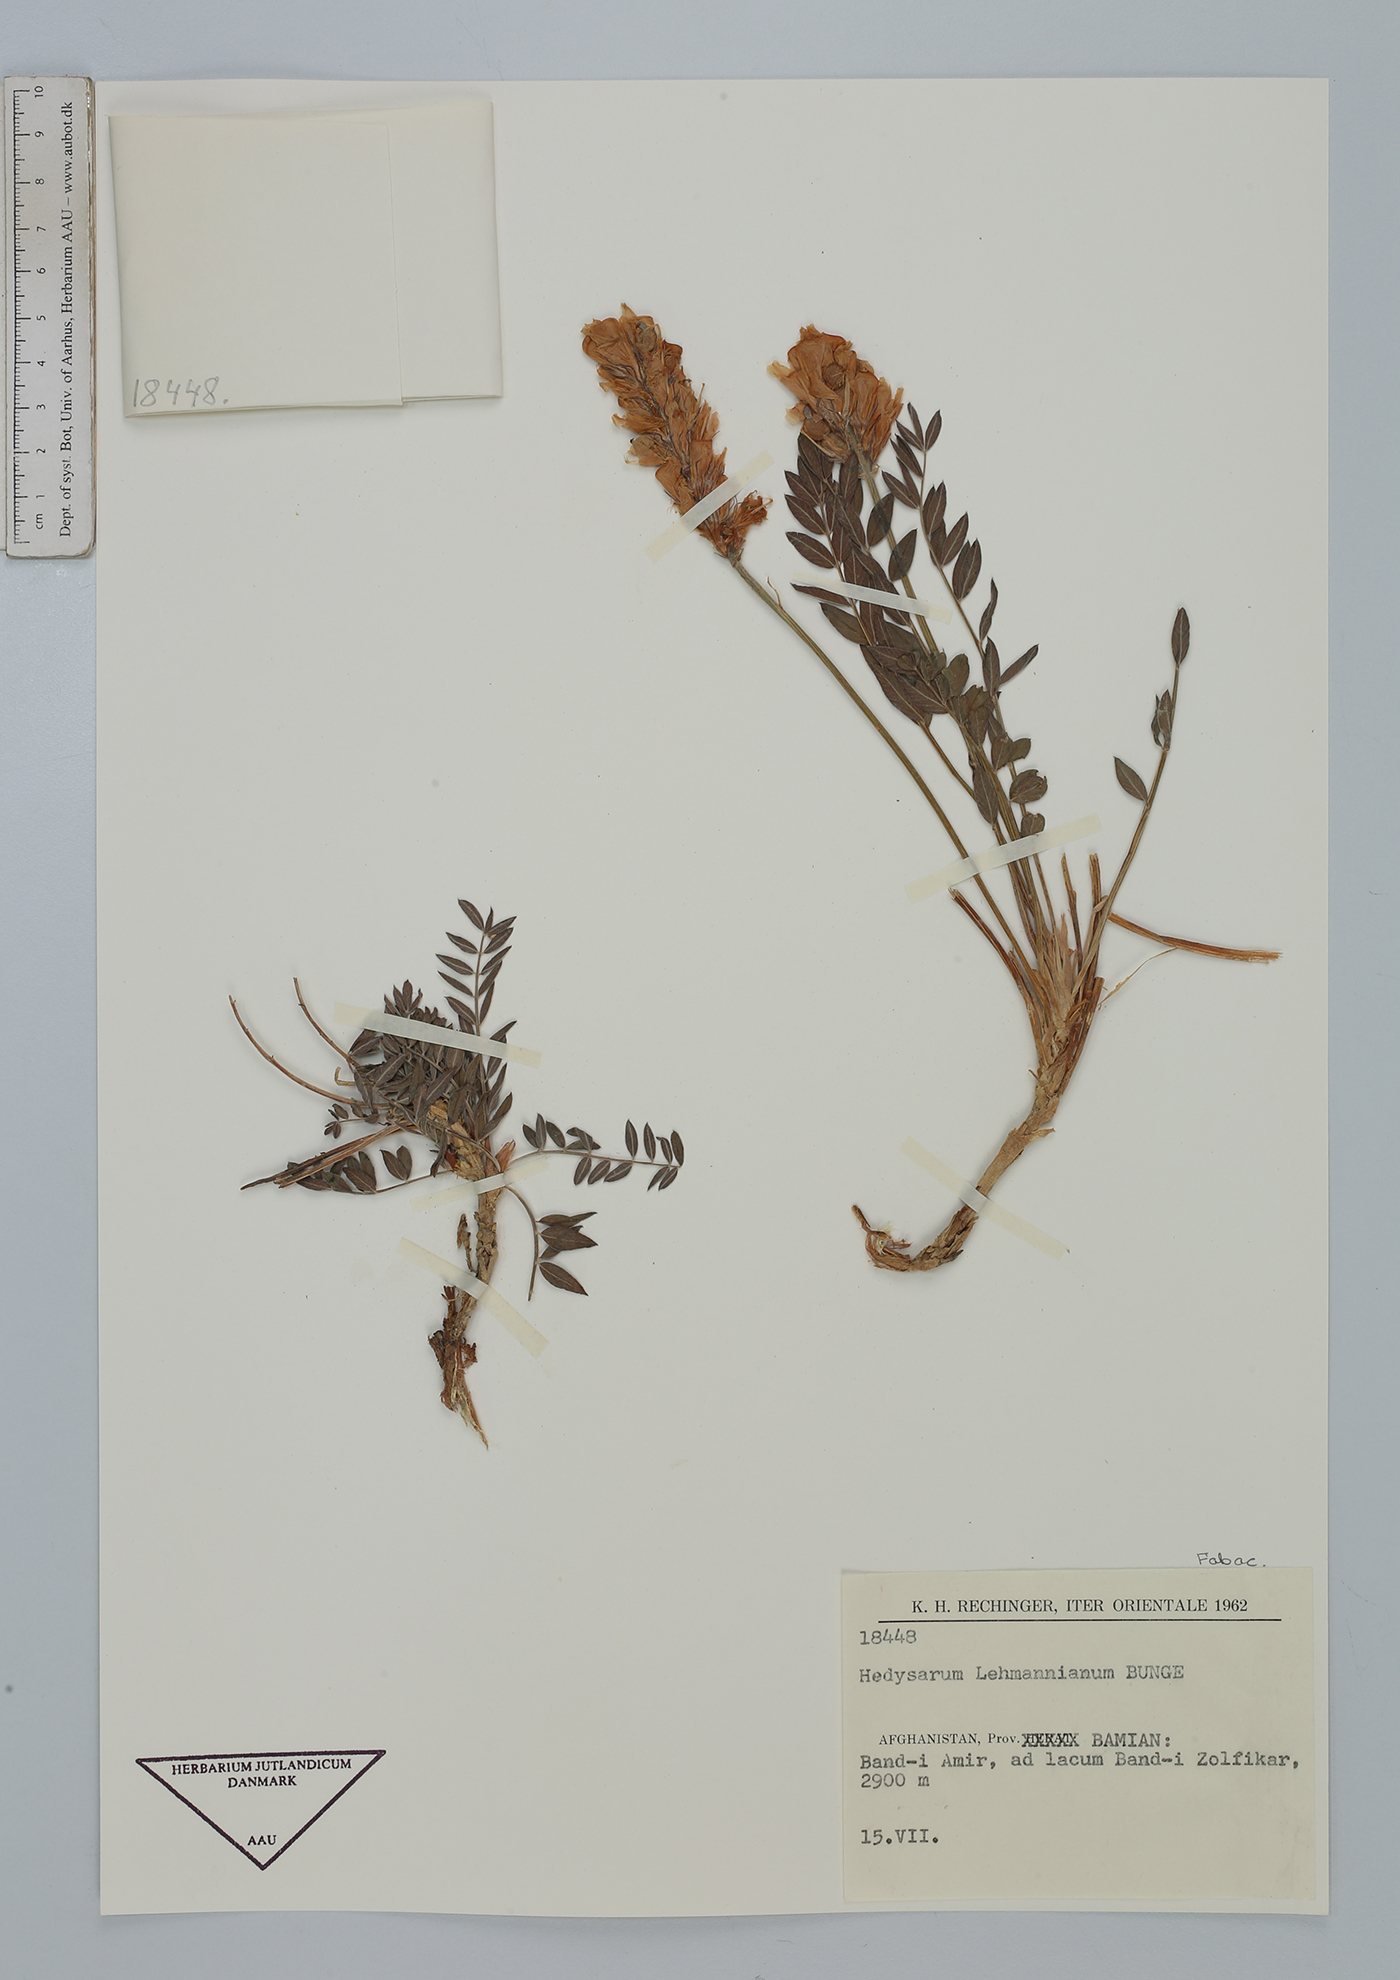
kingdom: Plantae
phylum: Tracheophyta
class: Magnoliopsida
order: Fabales
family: Fabaceae
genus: Hedysarum
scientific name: Hedysarum lehmannianum
